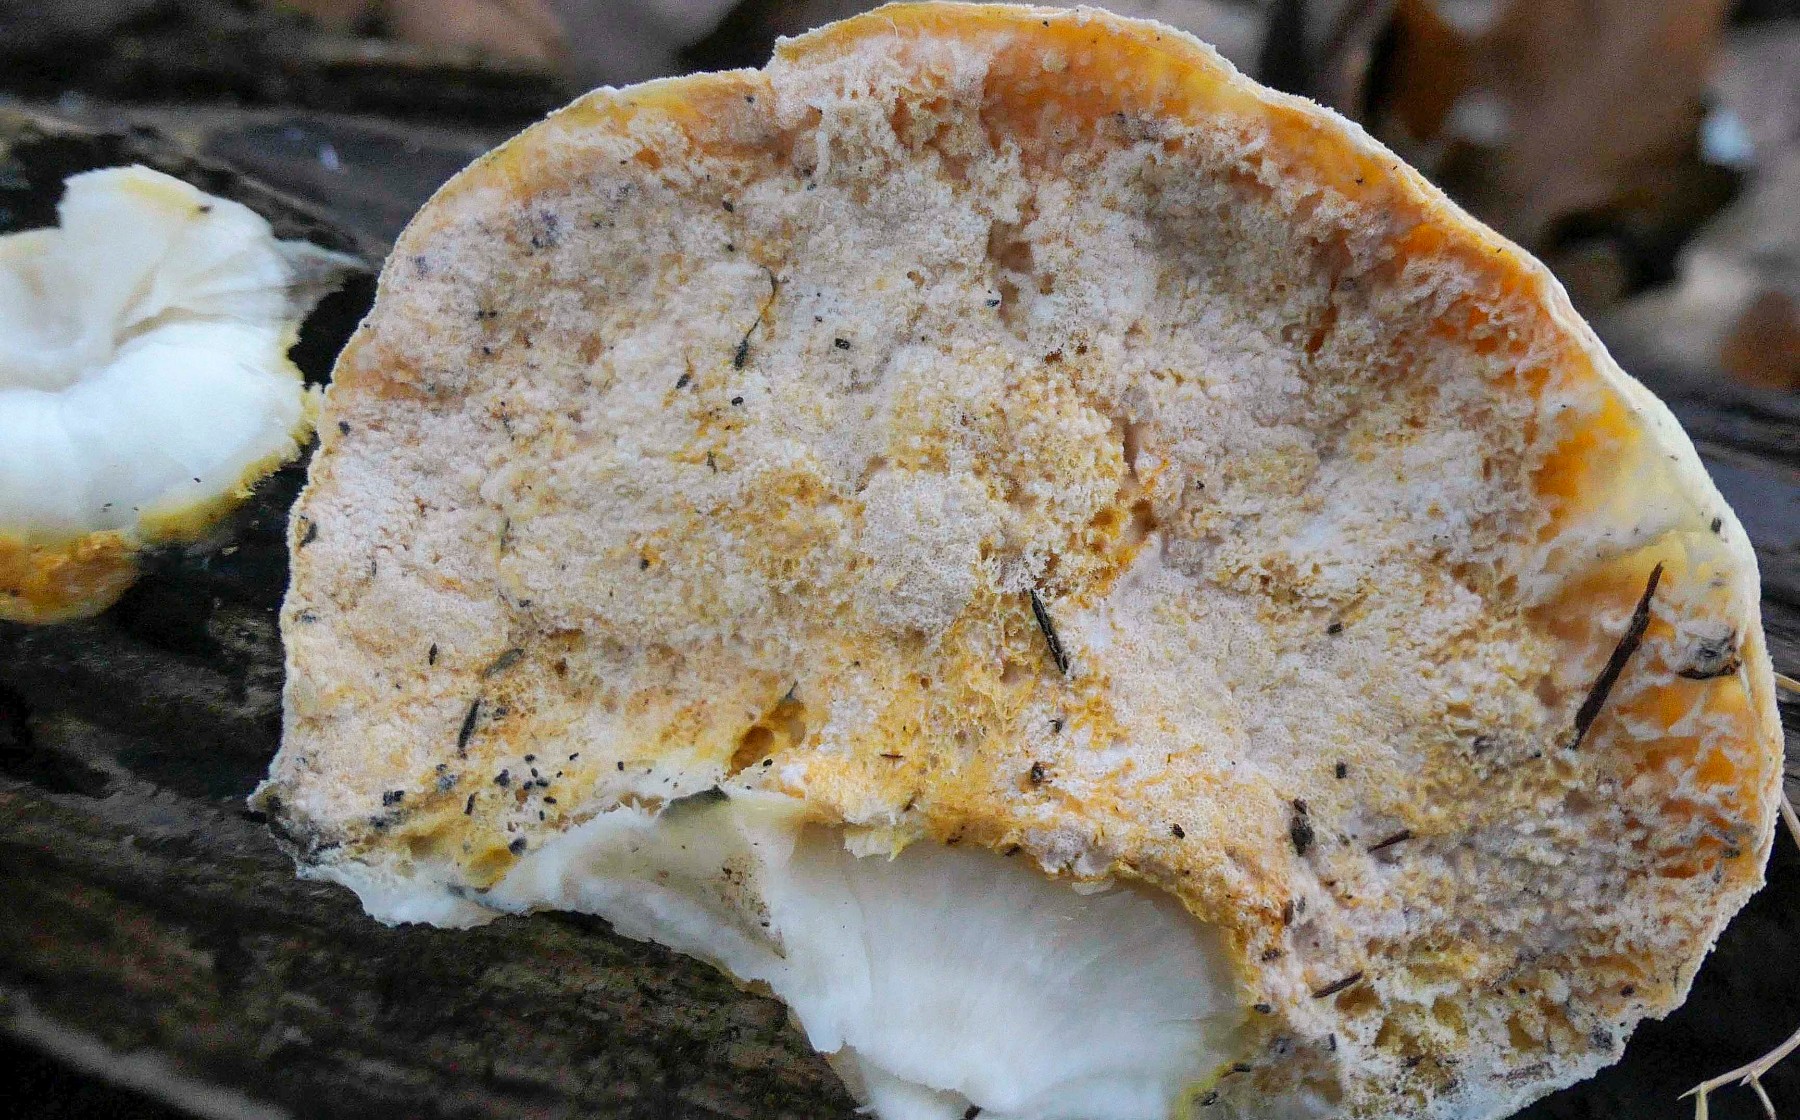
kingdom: Fungi
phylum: Ascomycota
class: Sordariomycetes
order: Hypocreales
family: Hypocreaceae
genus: Protocrea
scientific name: Protocrea pallida
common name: bleg kødkerne
